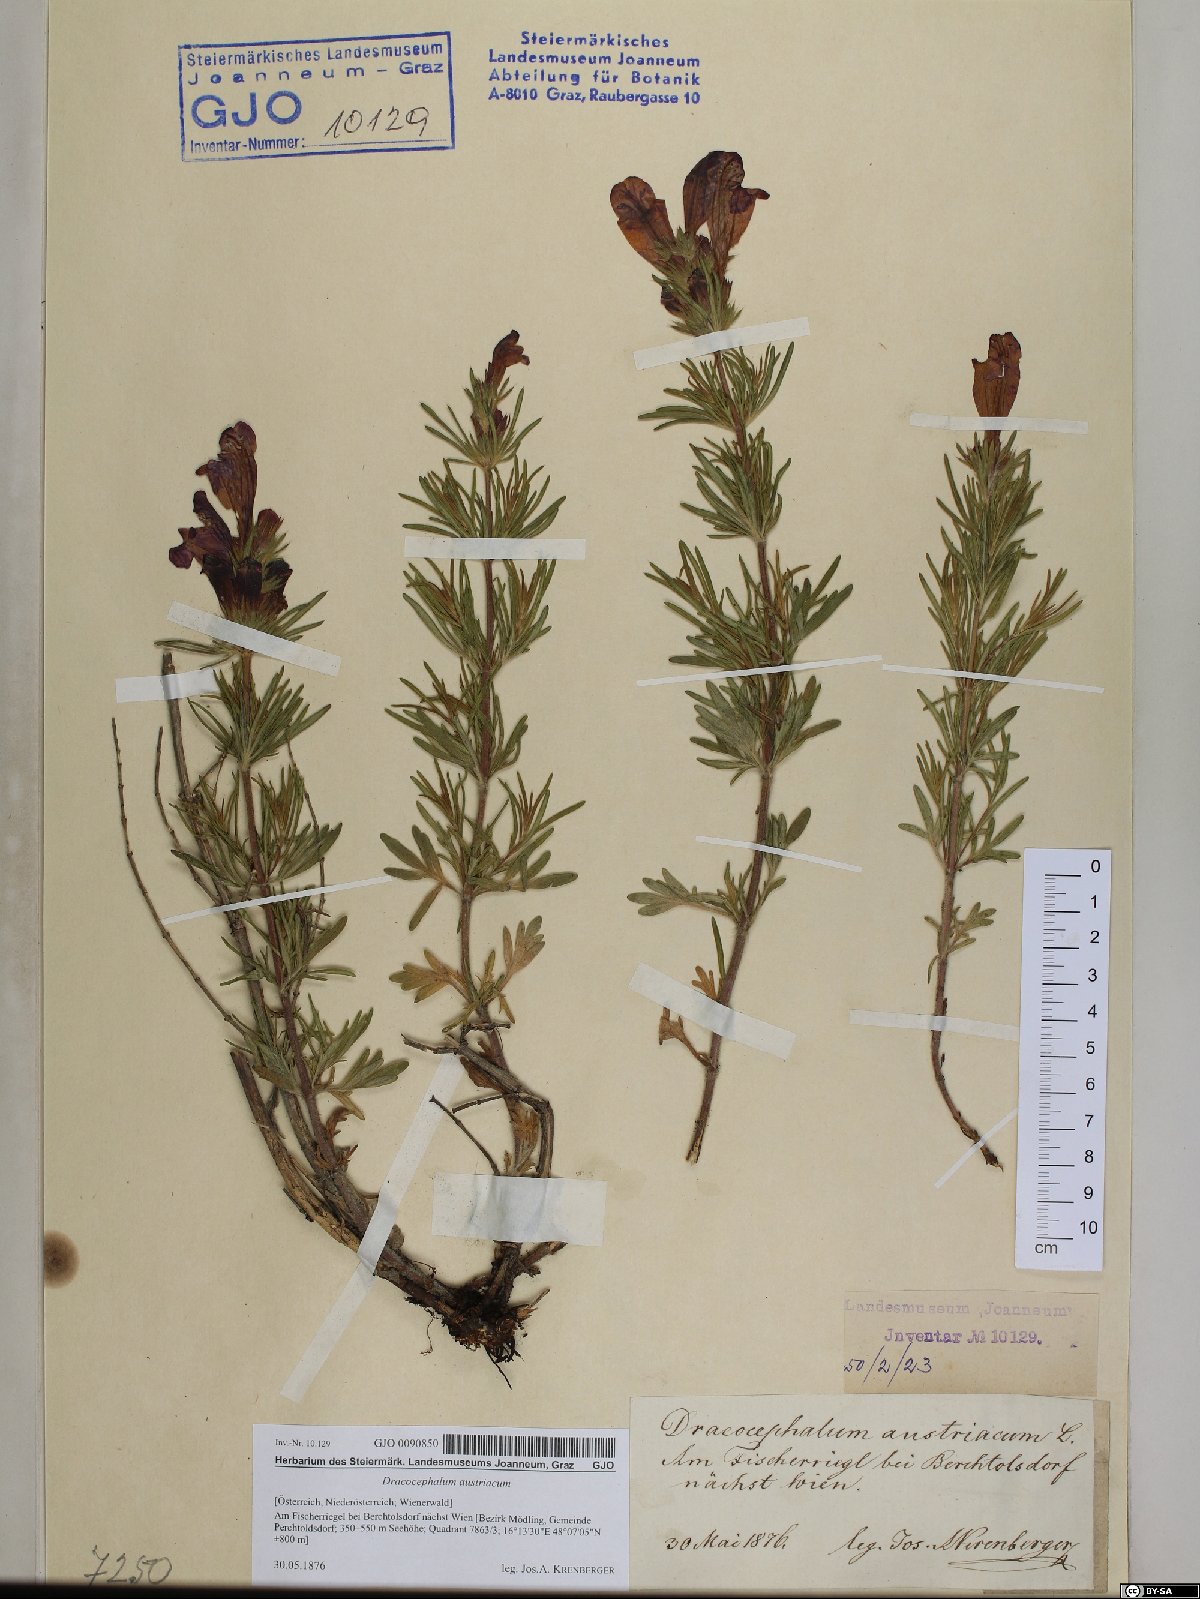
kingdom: Plantae
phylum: Tracheophyta
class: Magnoliopsida
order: Lamiales
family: Lamiaceae
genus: Dracocephalum
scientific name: Dracocephalum austriacum
